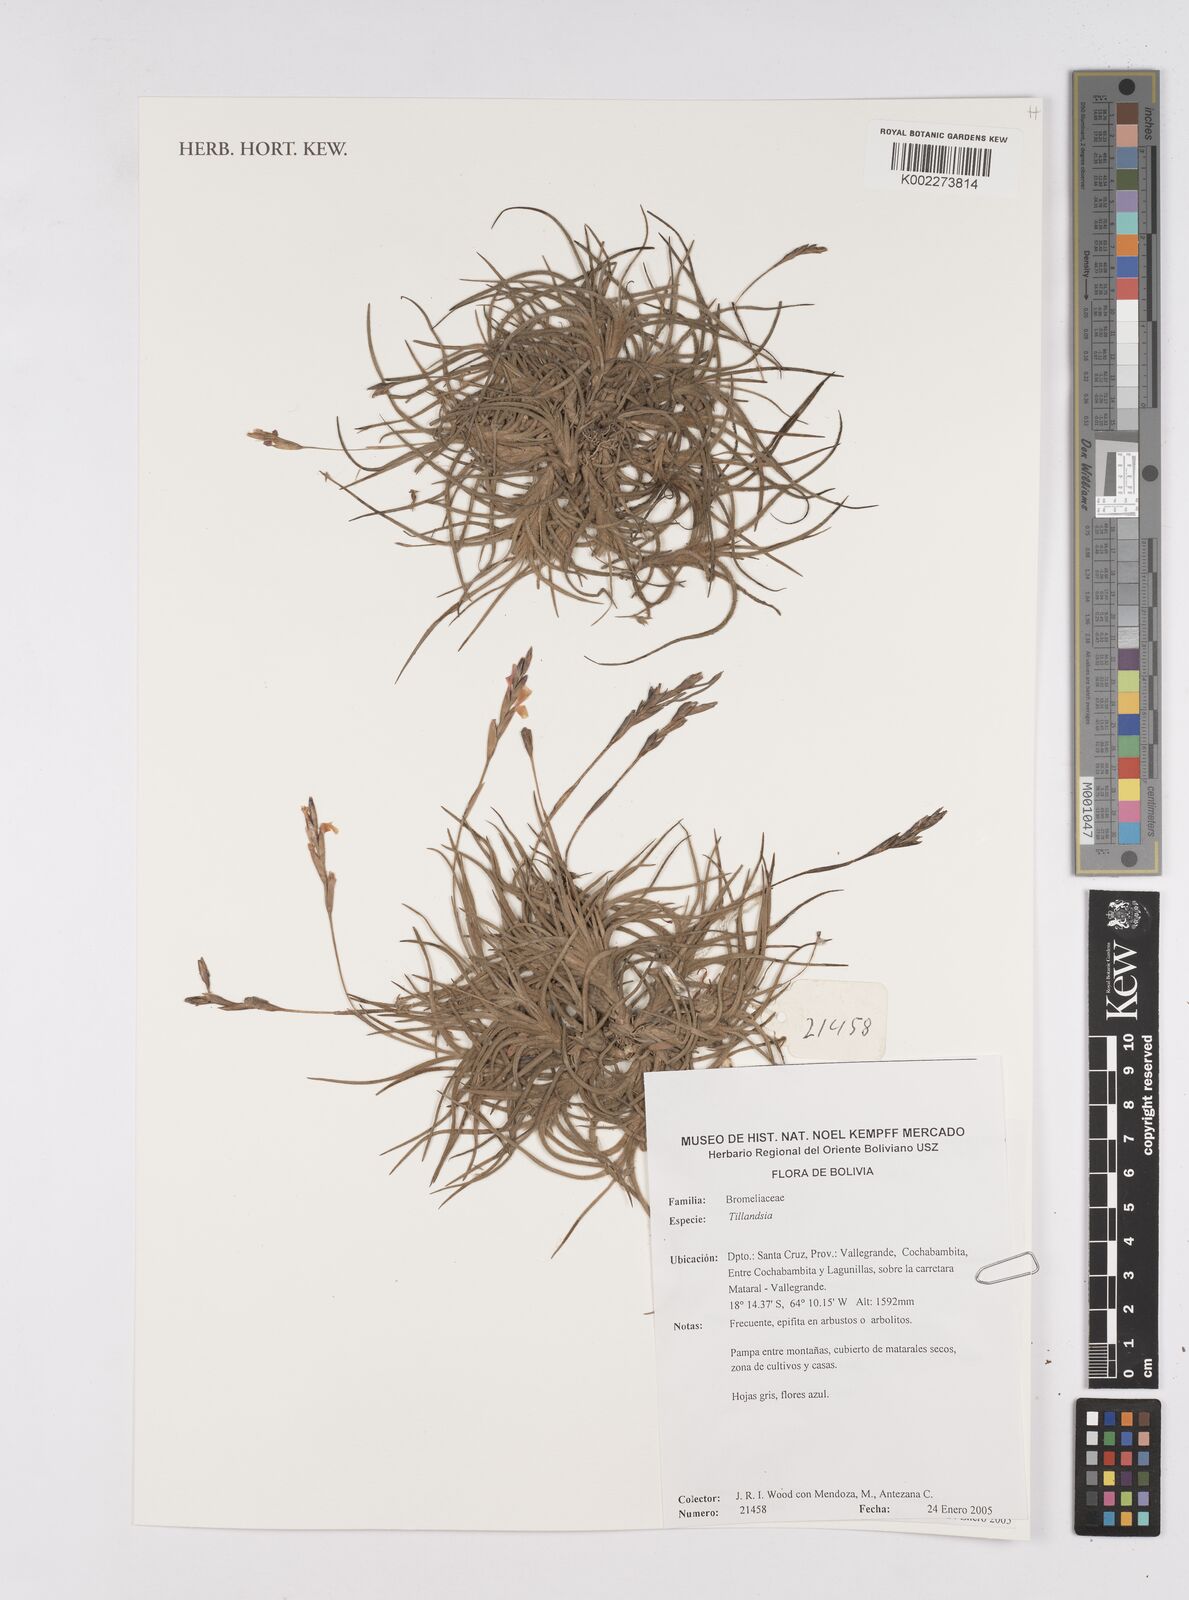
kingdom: Plantae
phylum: Tracheophyta
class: Liliopsida
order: Poales
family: Bromeliaceae
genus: Tillandsia
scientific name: Tillandsia
